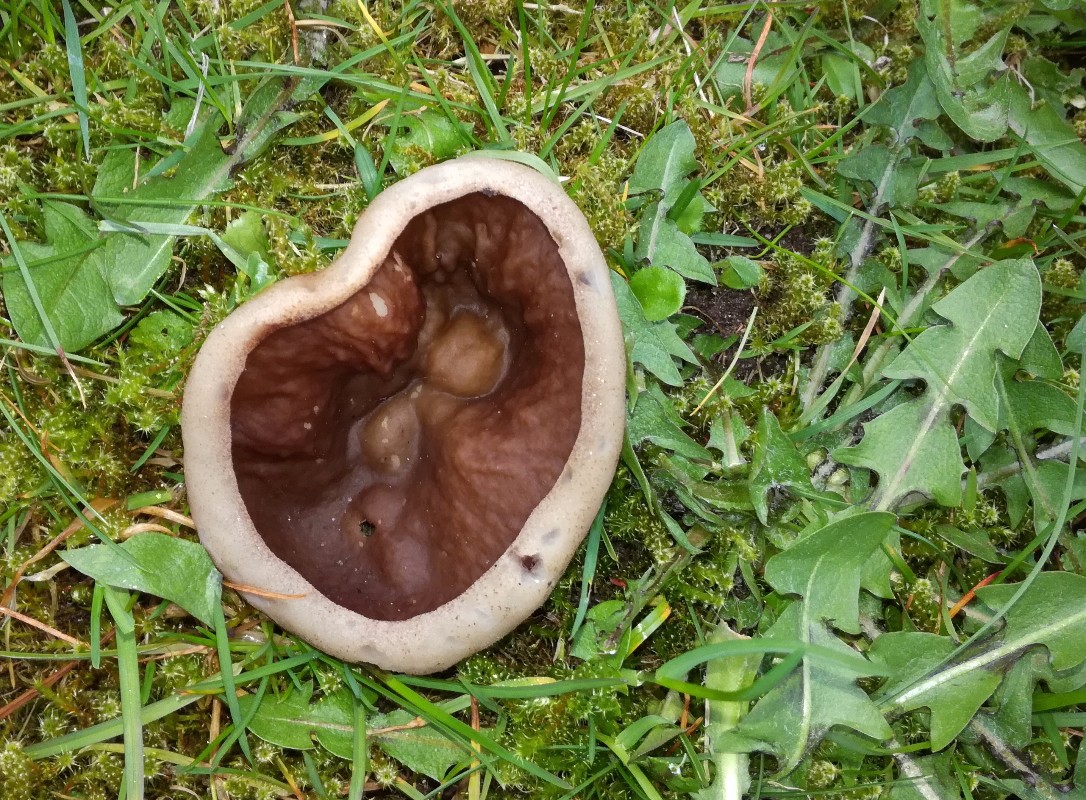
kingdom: Fungi
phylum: Ascomycota
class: Pezizomycetes
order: Pezizales
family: Morchellaceae
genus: Disciotis
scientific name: Disciotis venosa
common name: klor-bægermorkel
